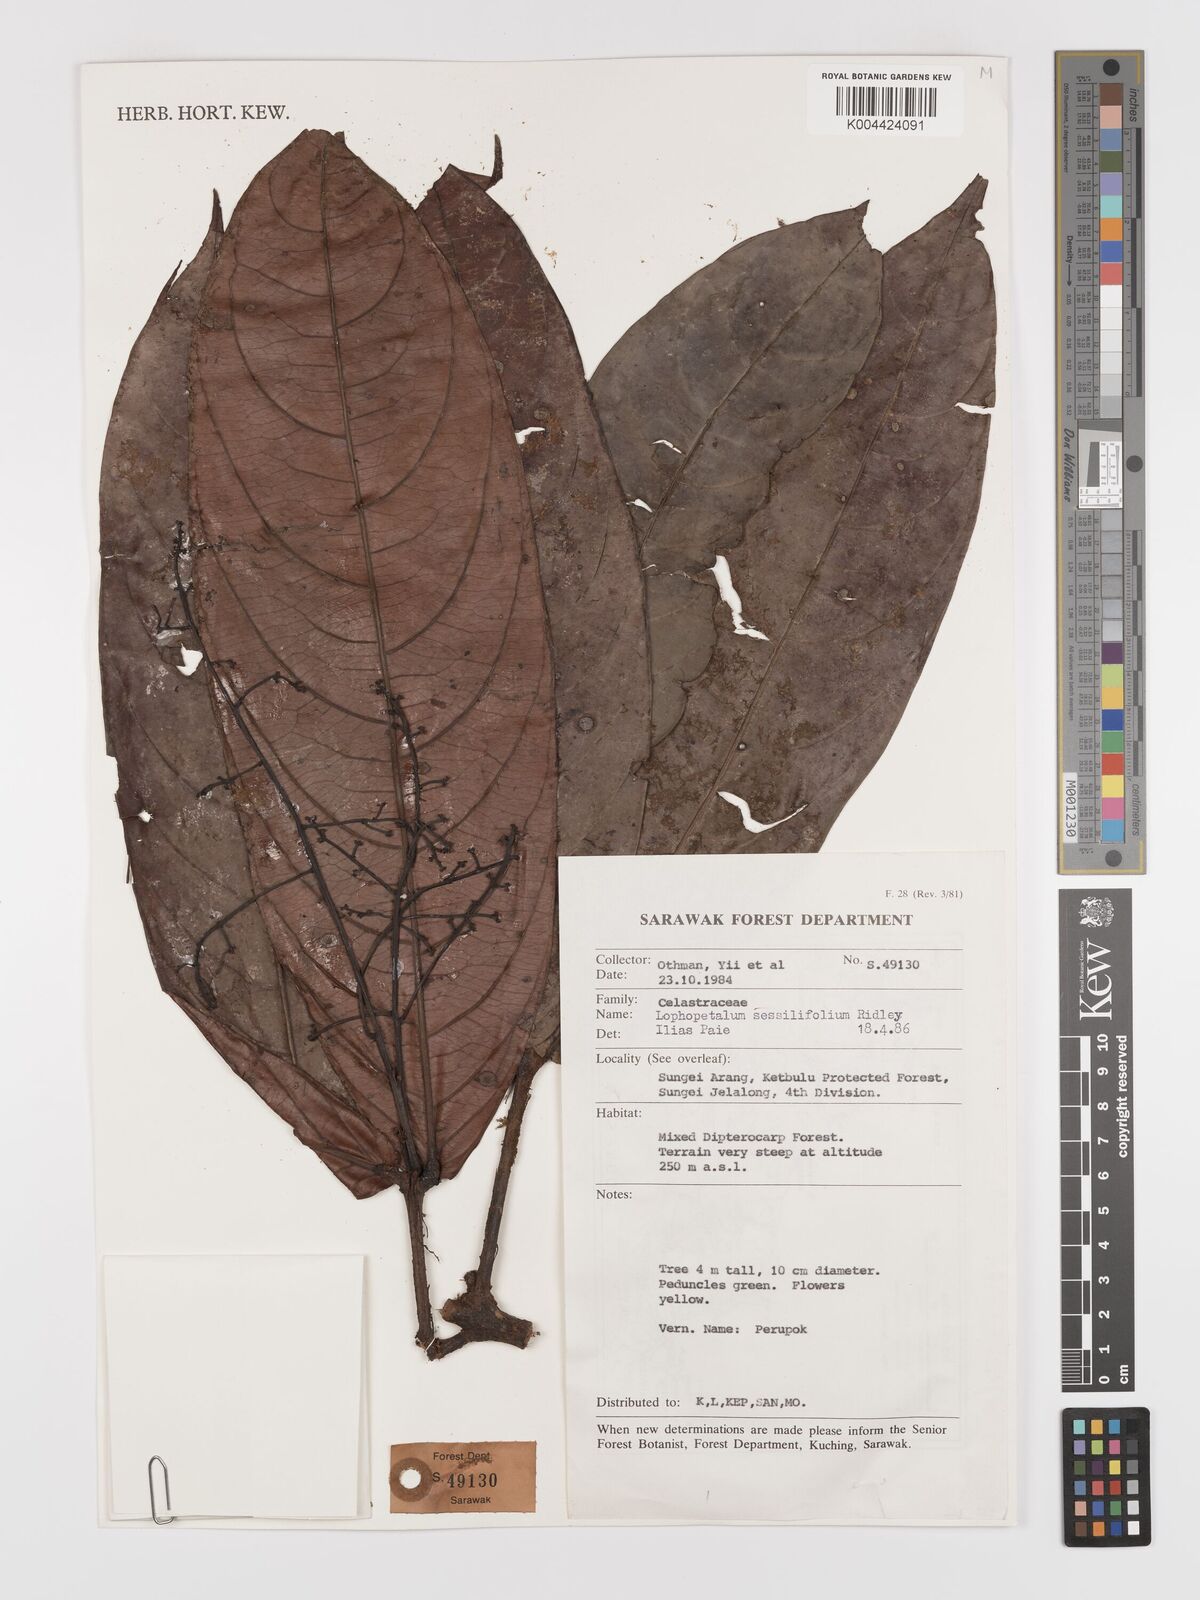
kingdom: Plantae
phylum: Tracheophyta
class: Magnoliopsida
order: Celastrales
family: Celastraceae
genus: Lophopetalum
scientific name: Lophopetalum sessilifolium
